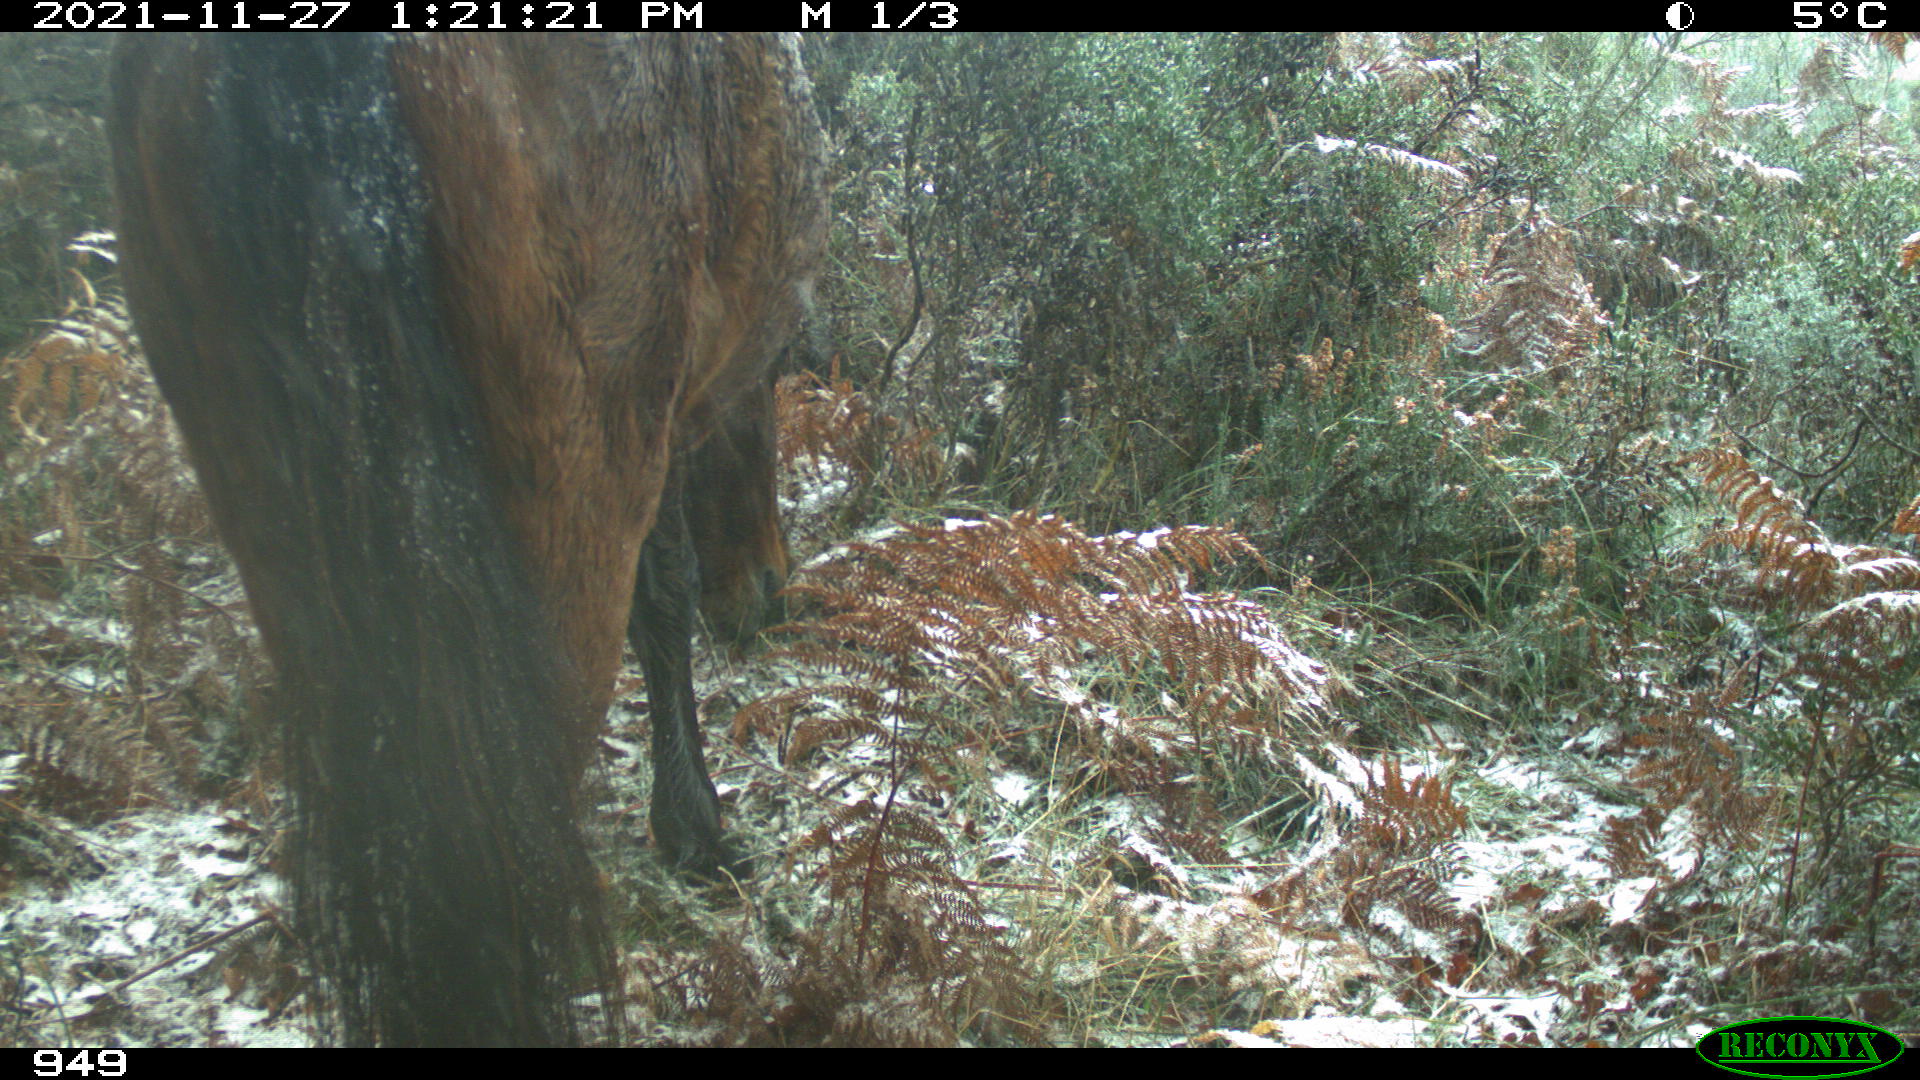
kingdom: Animalia
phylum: Chordata
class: Mammalia
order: Perissodactyla
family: Equidae
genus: Equus
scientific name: Equus caballus
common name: Horse
